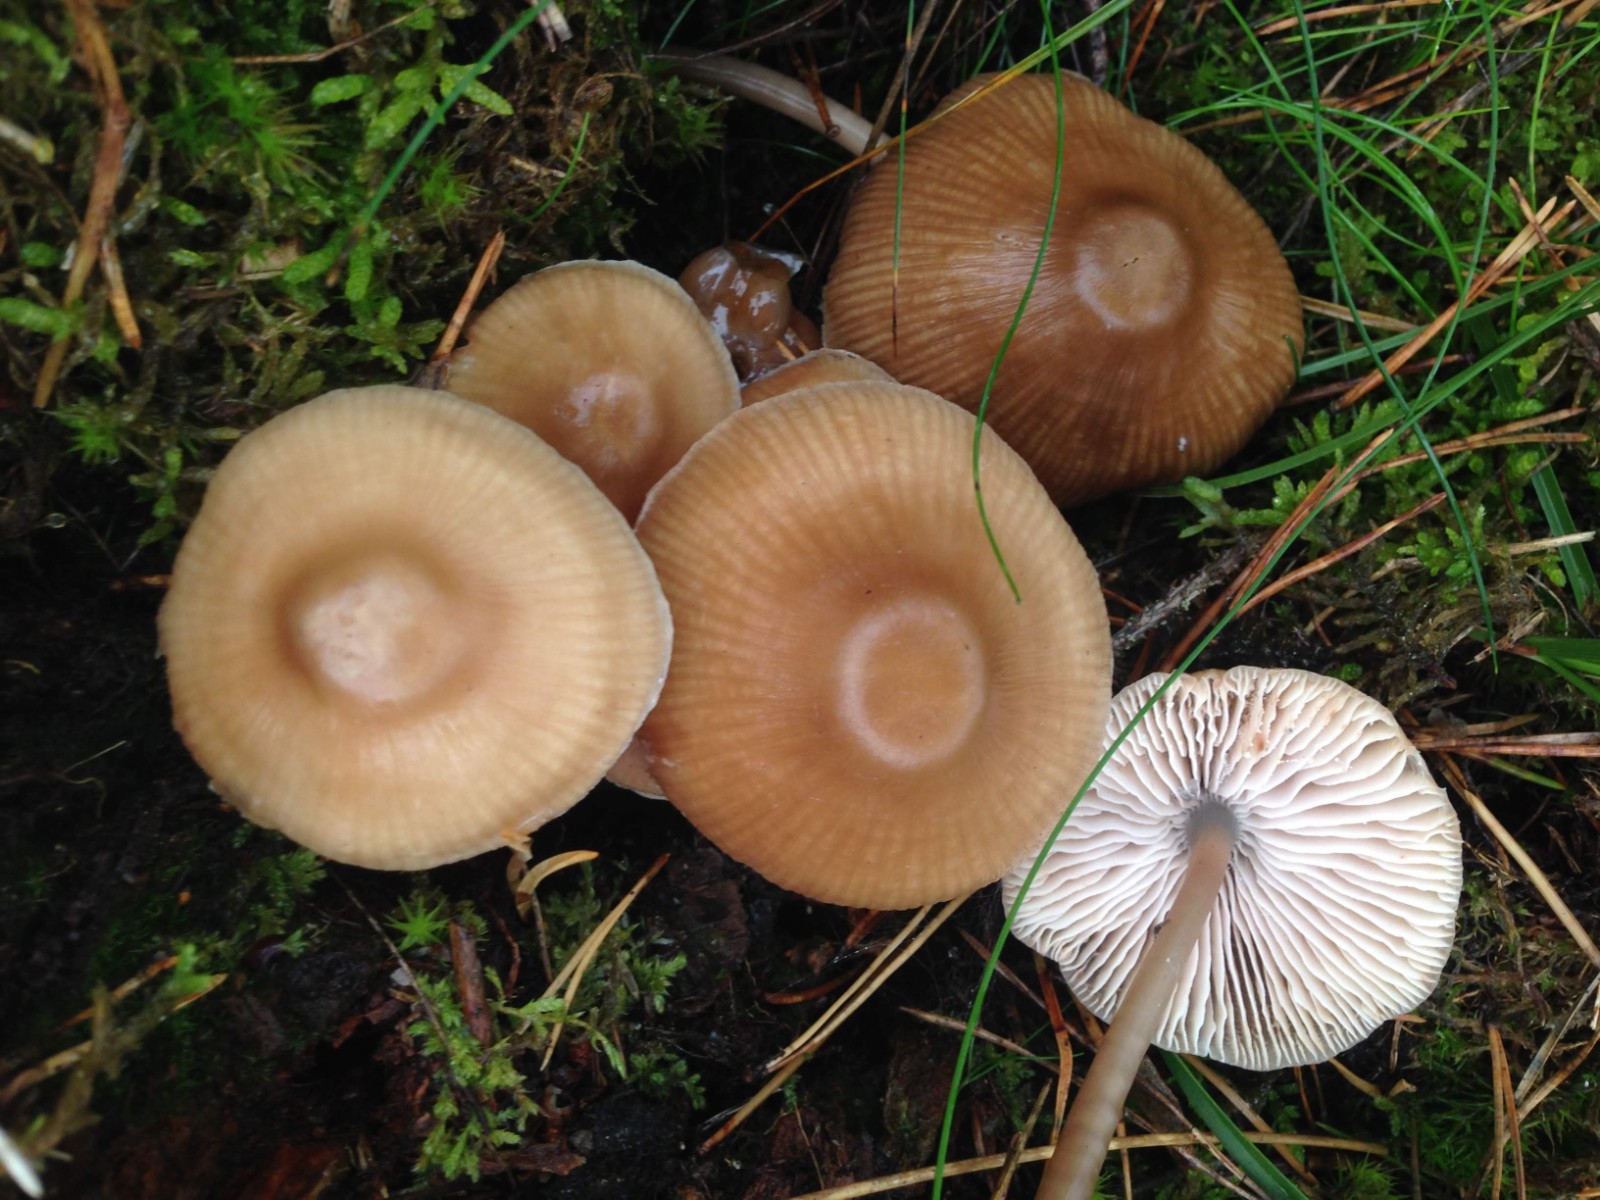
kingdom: Fungi
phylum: Basidiomycota
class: Agaricomycetes
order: Agaricales
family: Mycenaceae
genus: Mycena
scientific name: Mycena galericulata
